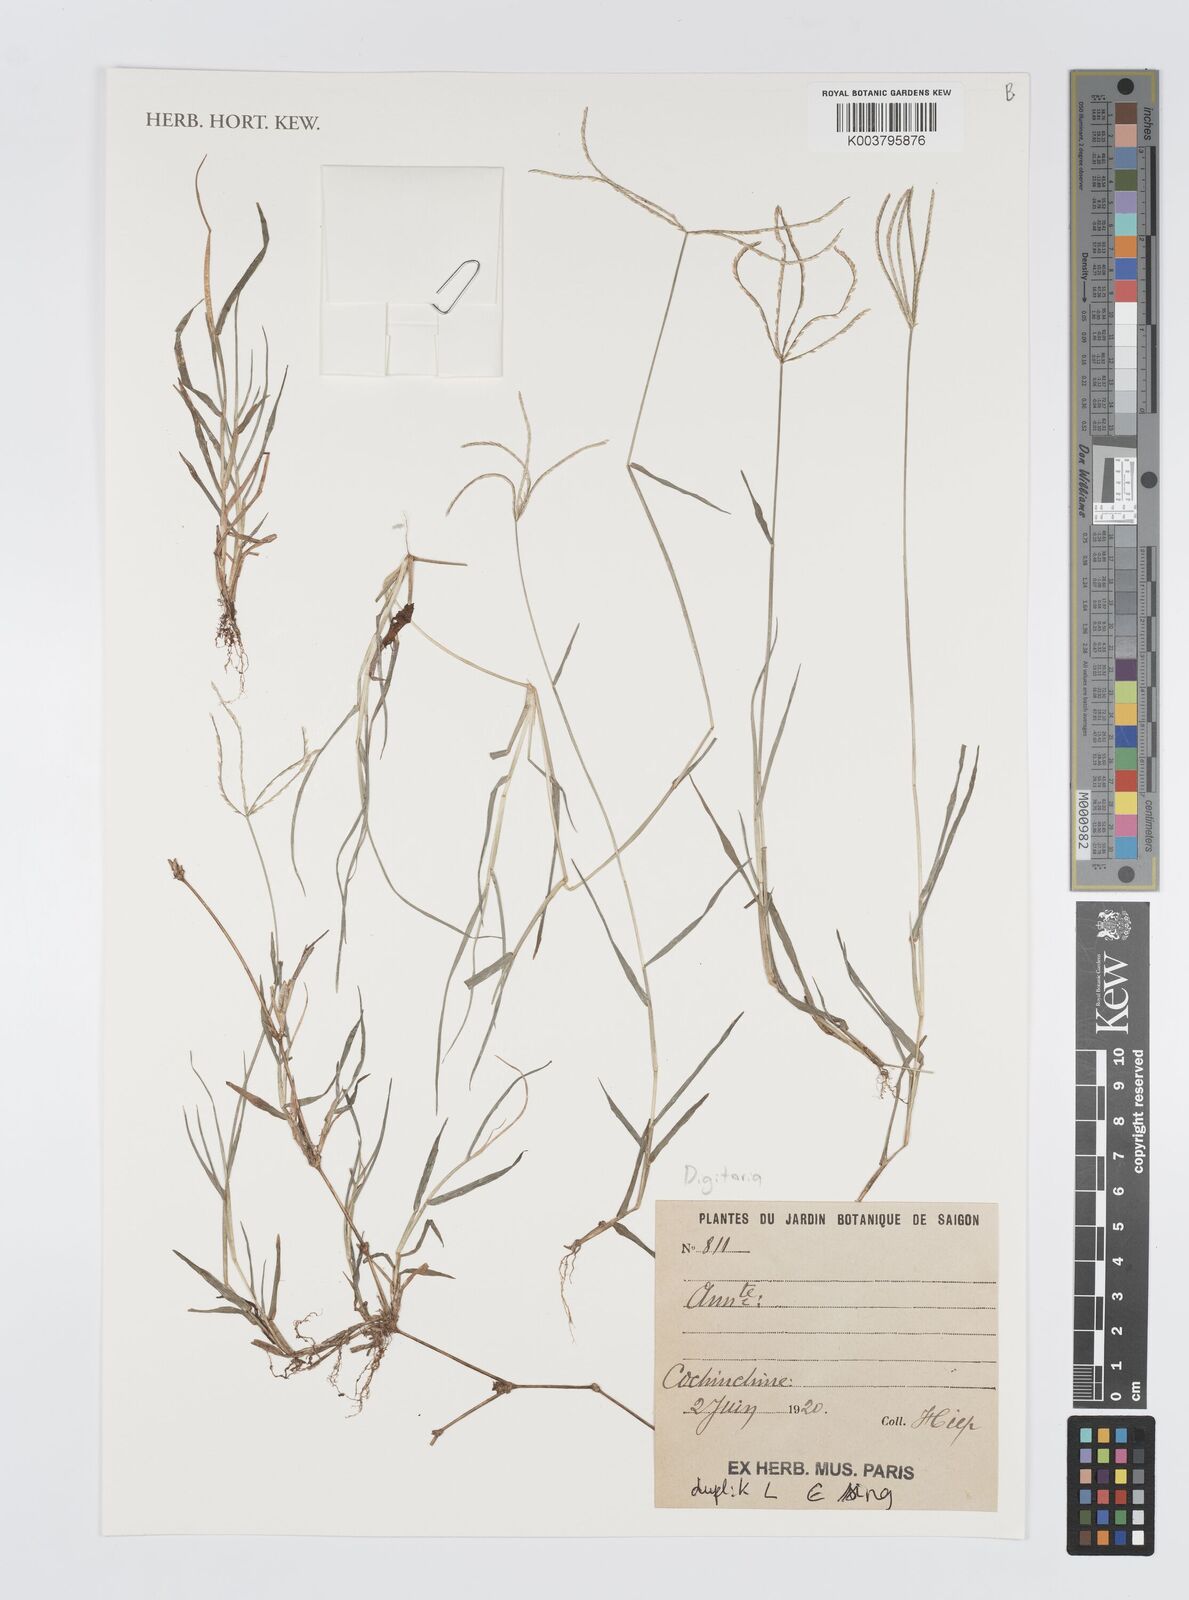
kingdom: Plantae
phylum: Tracheophyta
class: Liliopsida
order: Poales
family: Poaceae
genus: Digitaria
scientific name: Digitaria
